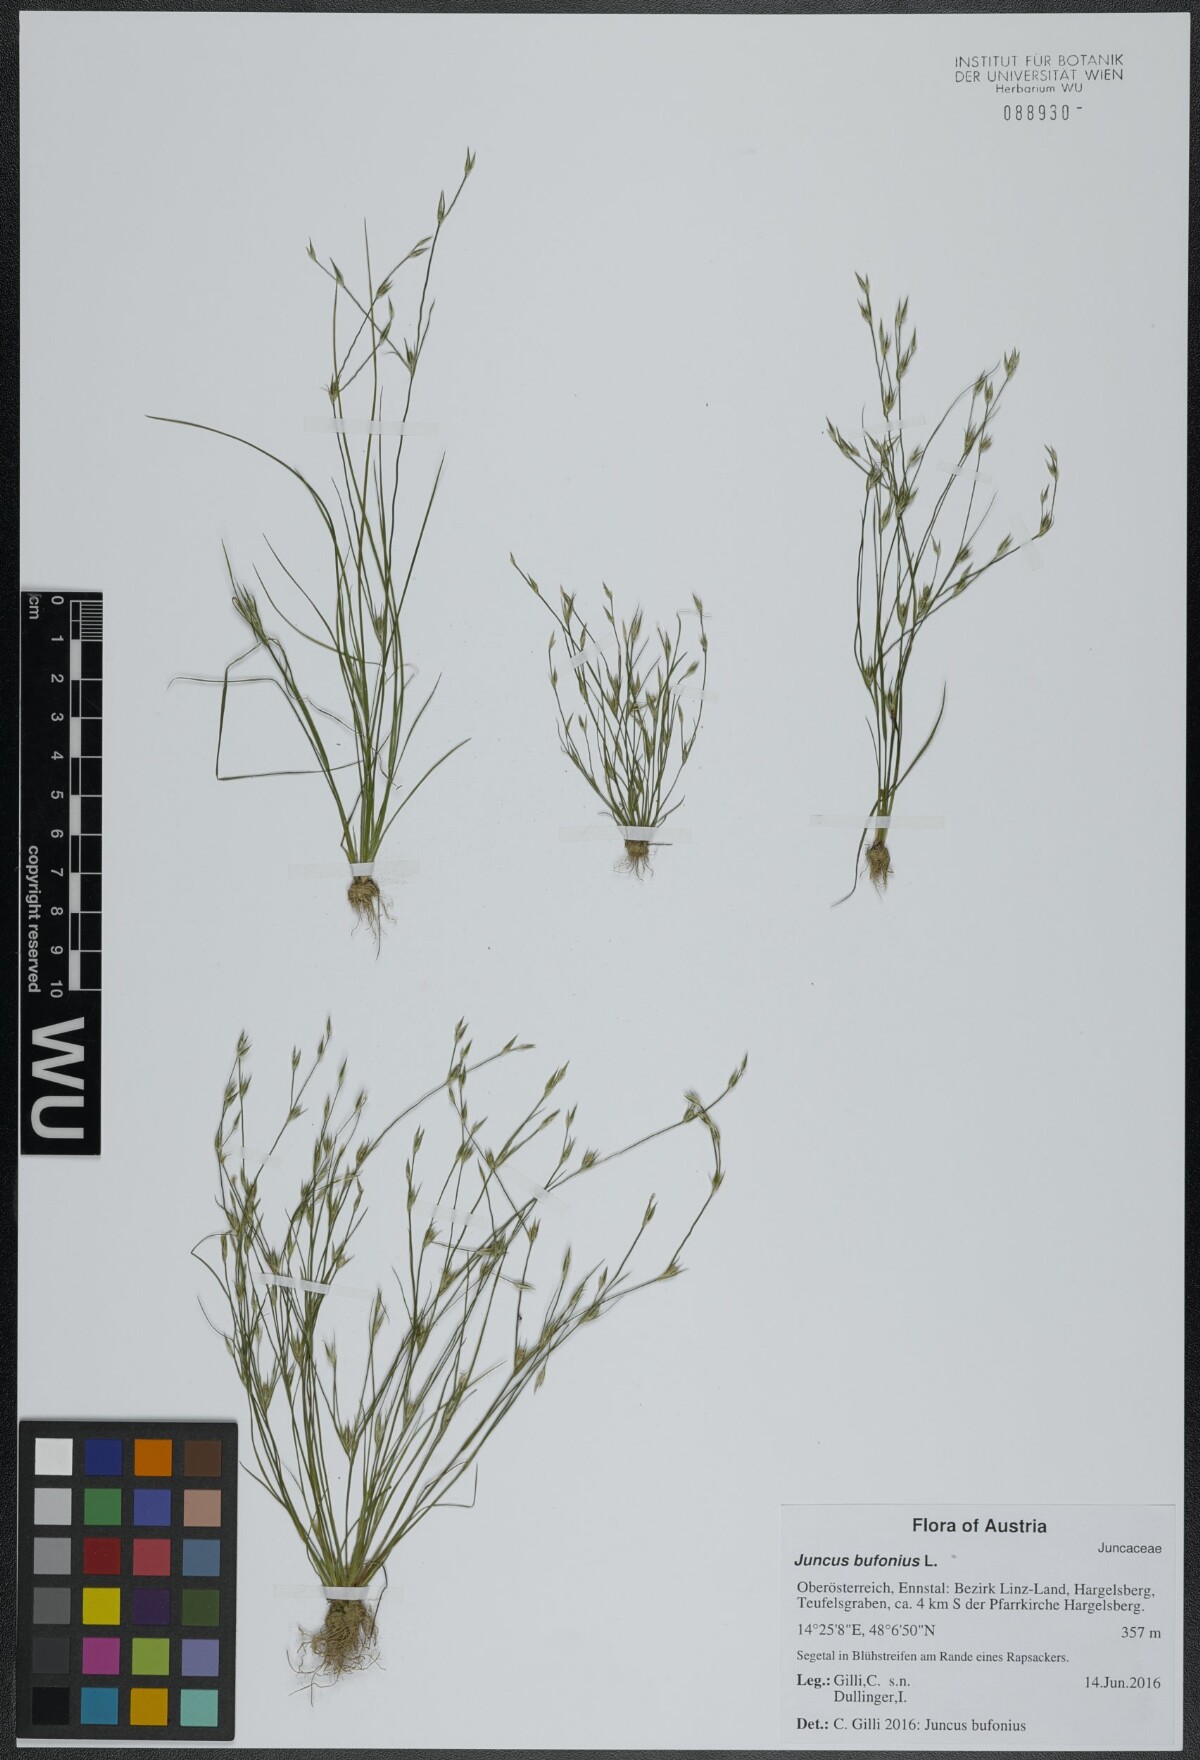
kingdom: Plantae
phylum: Tracheophyta
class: Liliopsida
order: Poales
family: Juncaceae
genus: Juncus
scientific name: Juncus bufonius
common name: Toad rush
